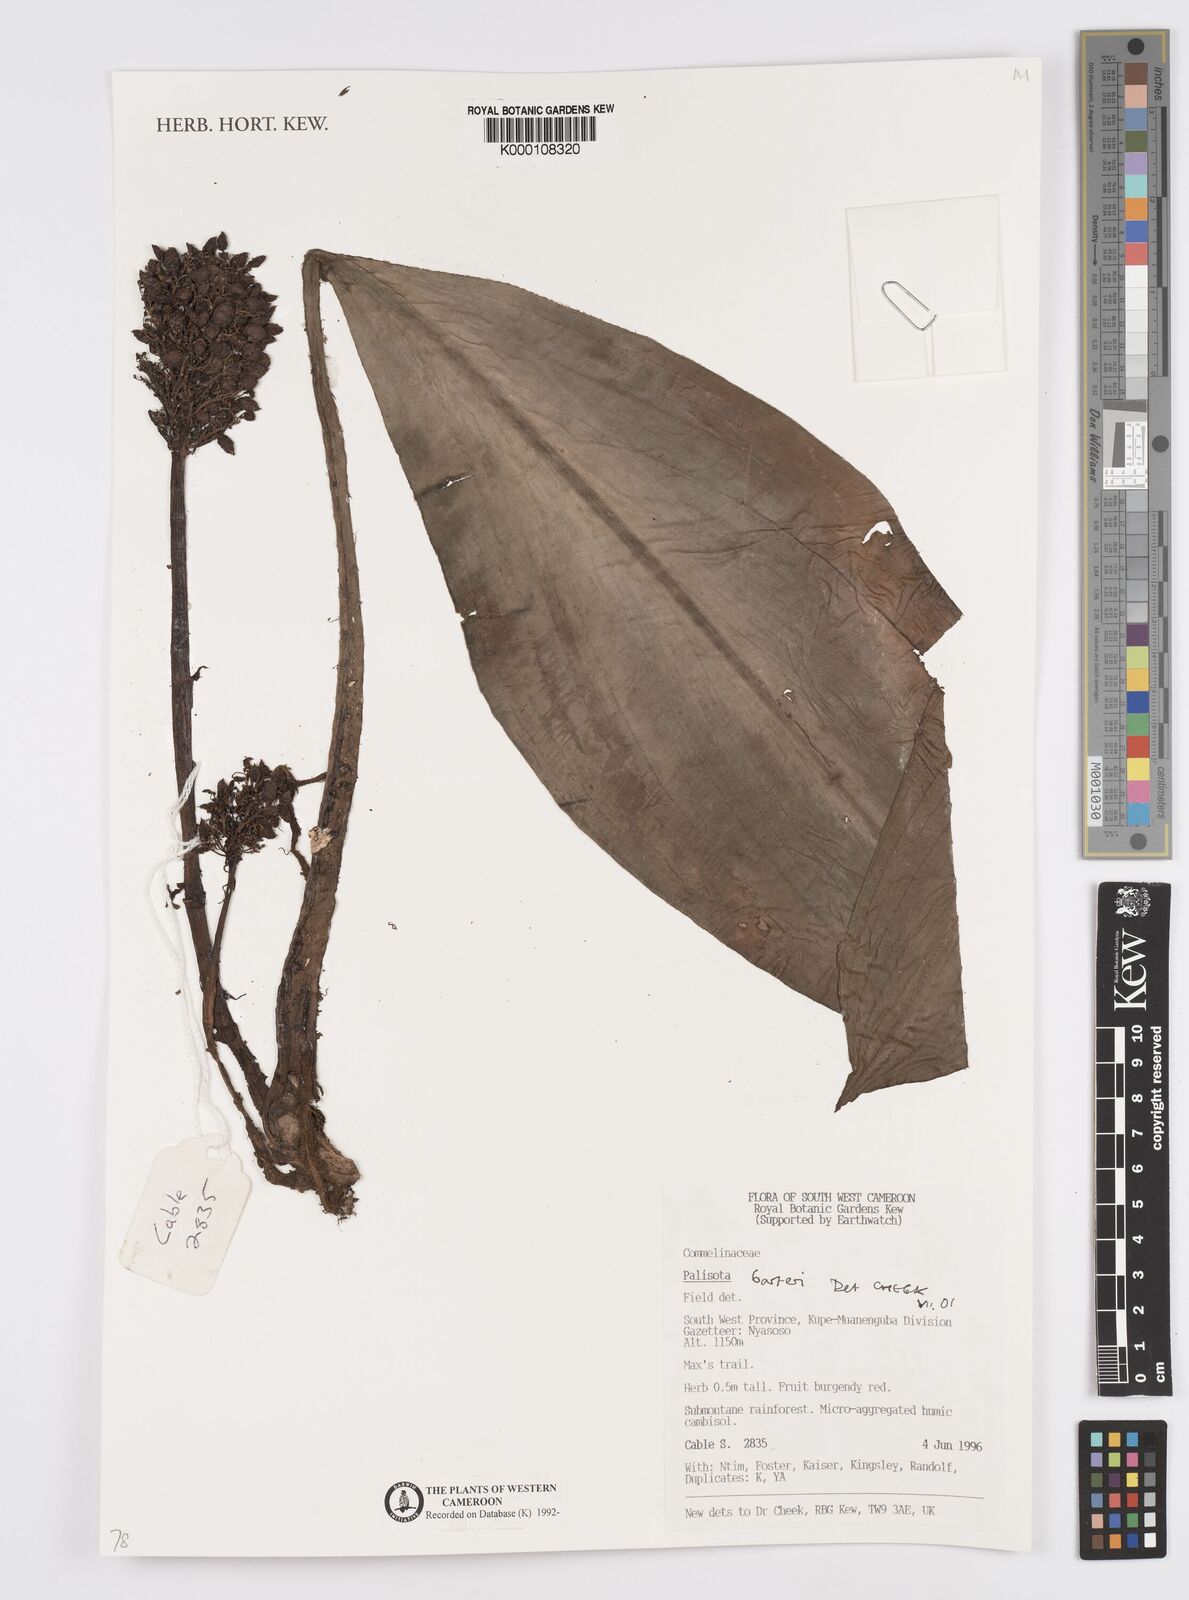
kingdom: Plantae
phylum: Tracheophyta
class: Liliopsida
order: Commelinales
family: Commelinaceae
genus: Palisota
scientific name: Palisota barteri
